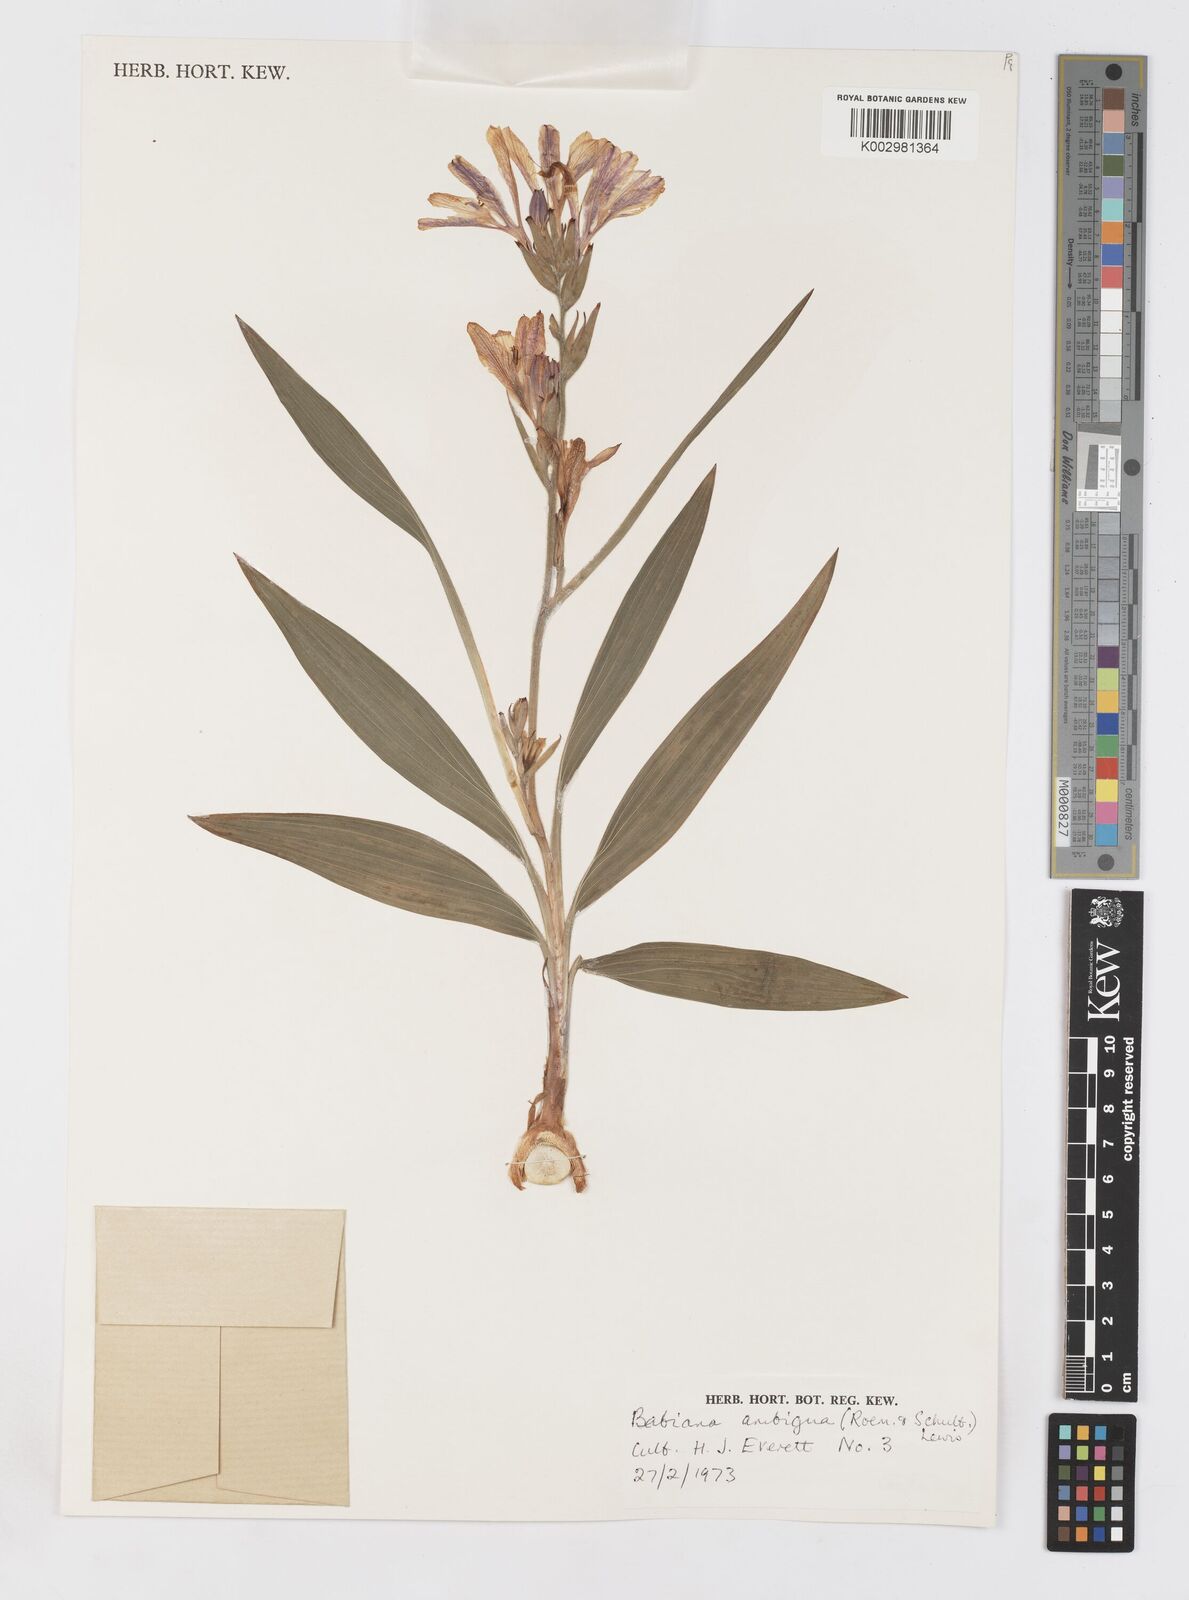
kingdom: Plantae
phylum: Tracheophyta
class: Liliopsida
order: Asparagales
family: Iridaceae
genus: Babiana
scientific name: Babiana ambigua
